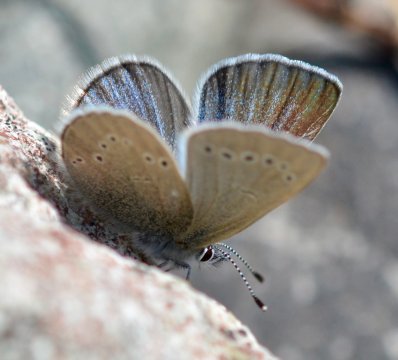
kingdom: Animalia
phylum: Arthropoda
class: Insecta
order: Lepidoptera
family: Lycaenidae
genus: Glaucopsyche
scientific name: Glaucopsyche lygdamus
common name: Silvery Blue
